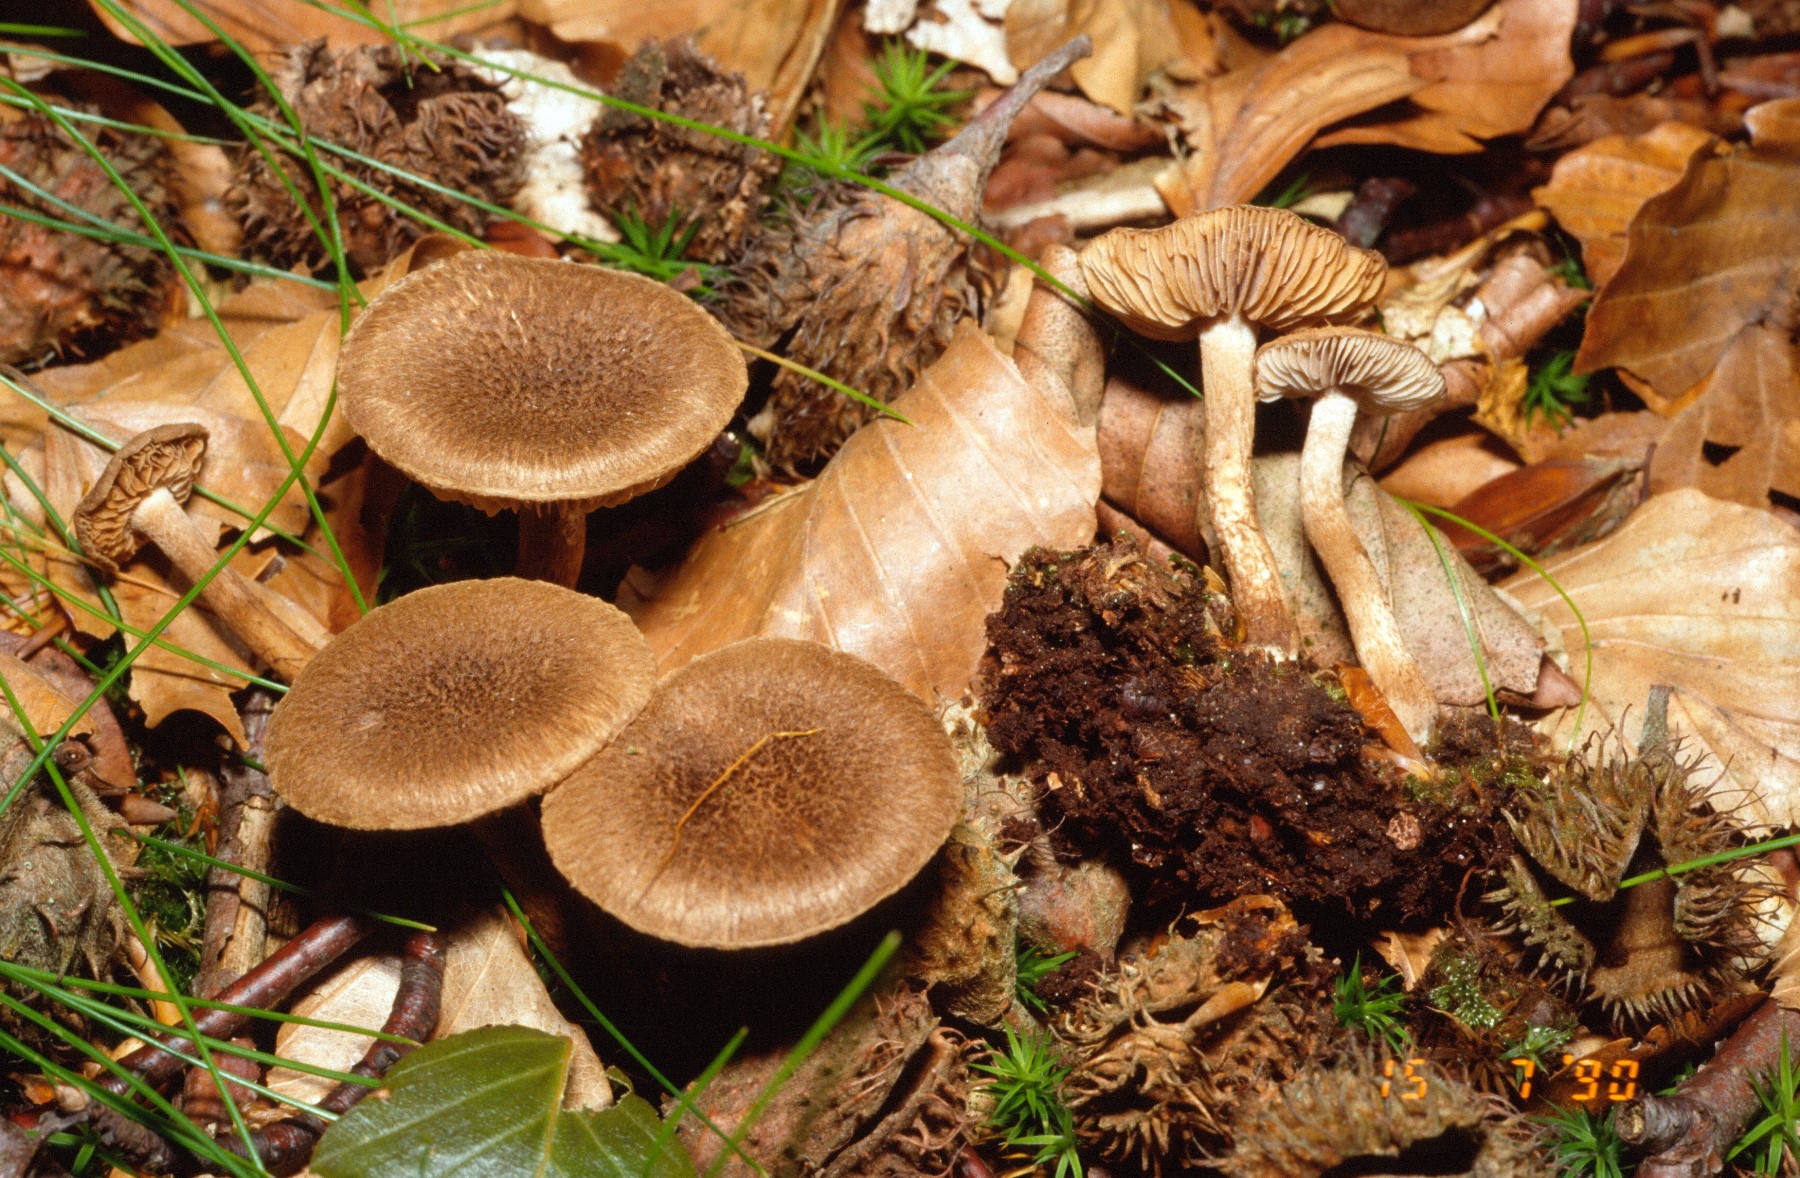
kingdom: Fungi
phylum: Basidiomycota
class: Agaricomycetes
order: Agaricales
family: Inocybaceae
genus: Inocybe
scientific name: Inocybe
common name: trævlhat
